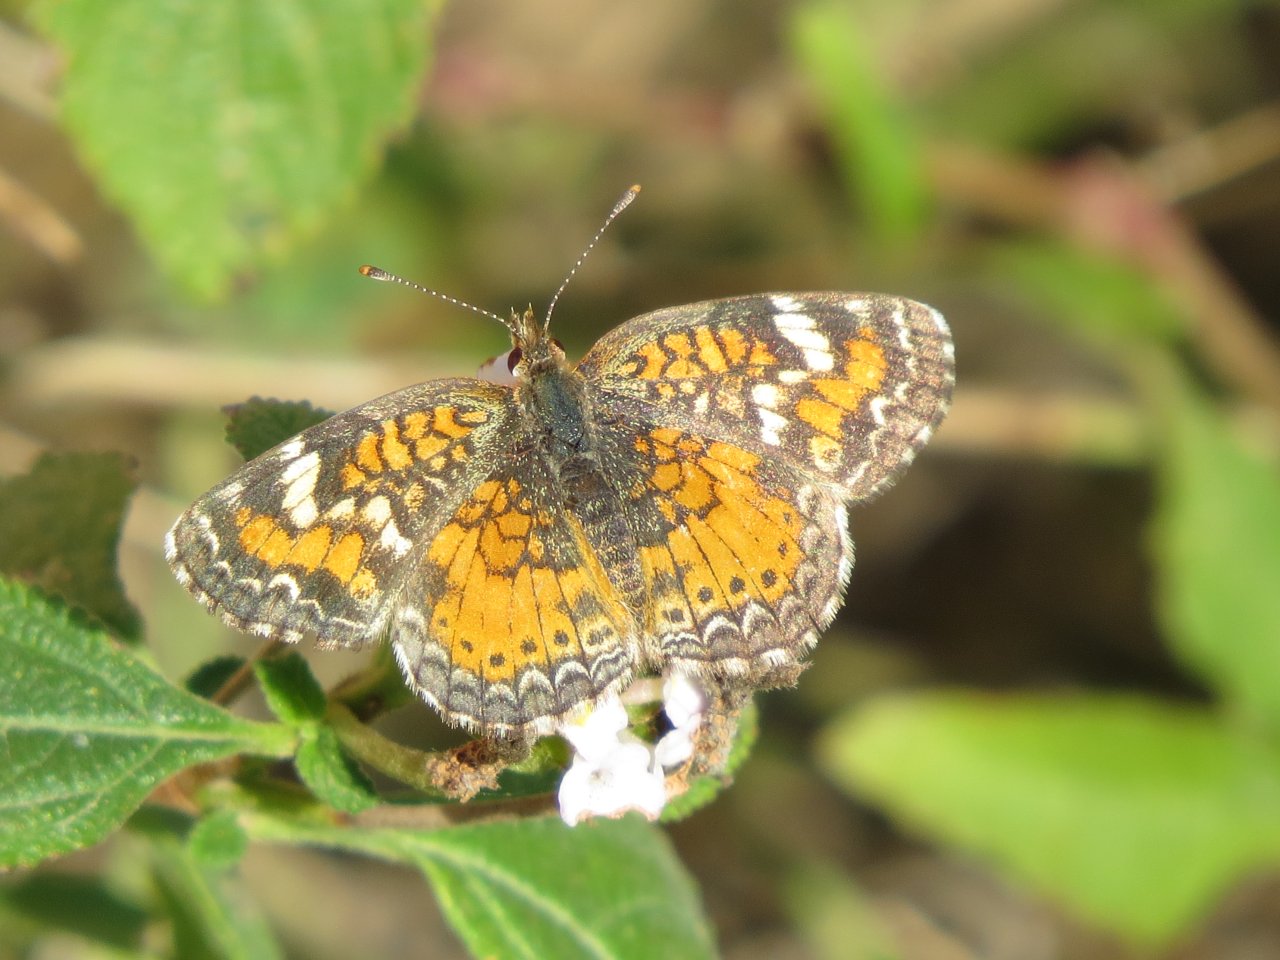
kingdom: Animalia
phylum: Arthropoda
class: Insecta
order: Lepidoptera
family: Nymphalidae
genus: Phyciodes
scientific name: Phyciodes phaon
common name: Phaon Crescent
